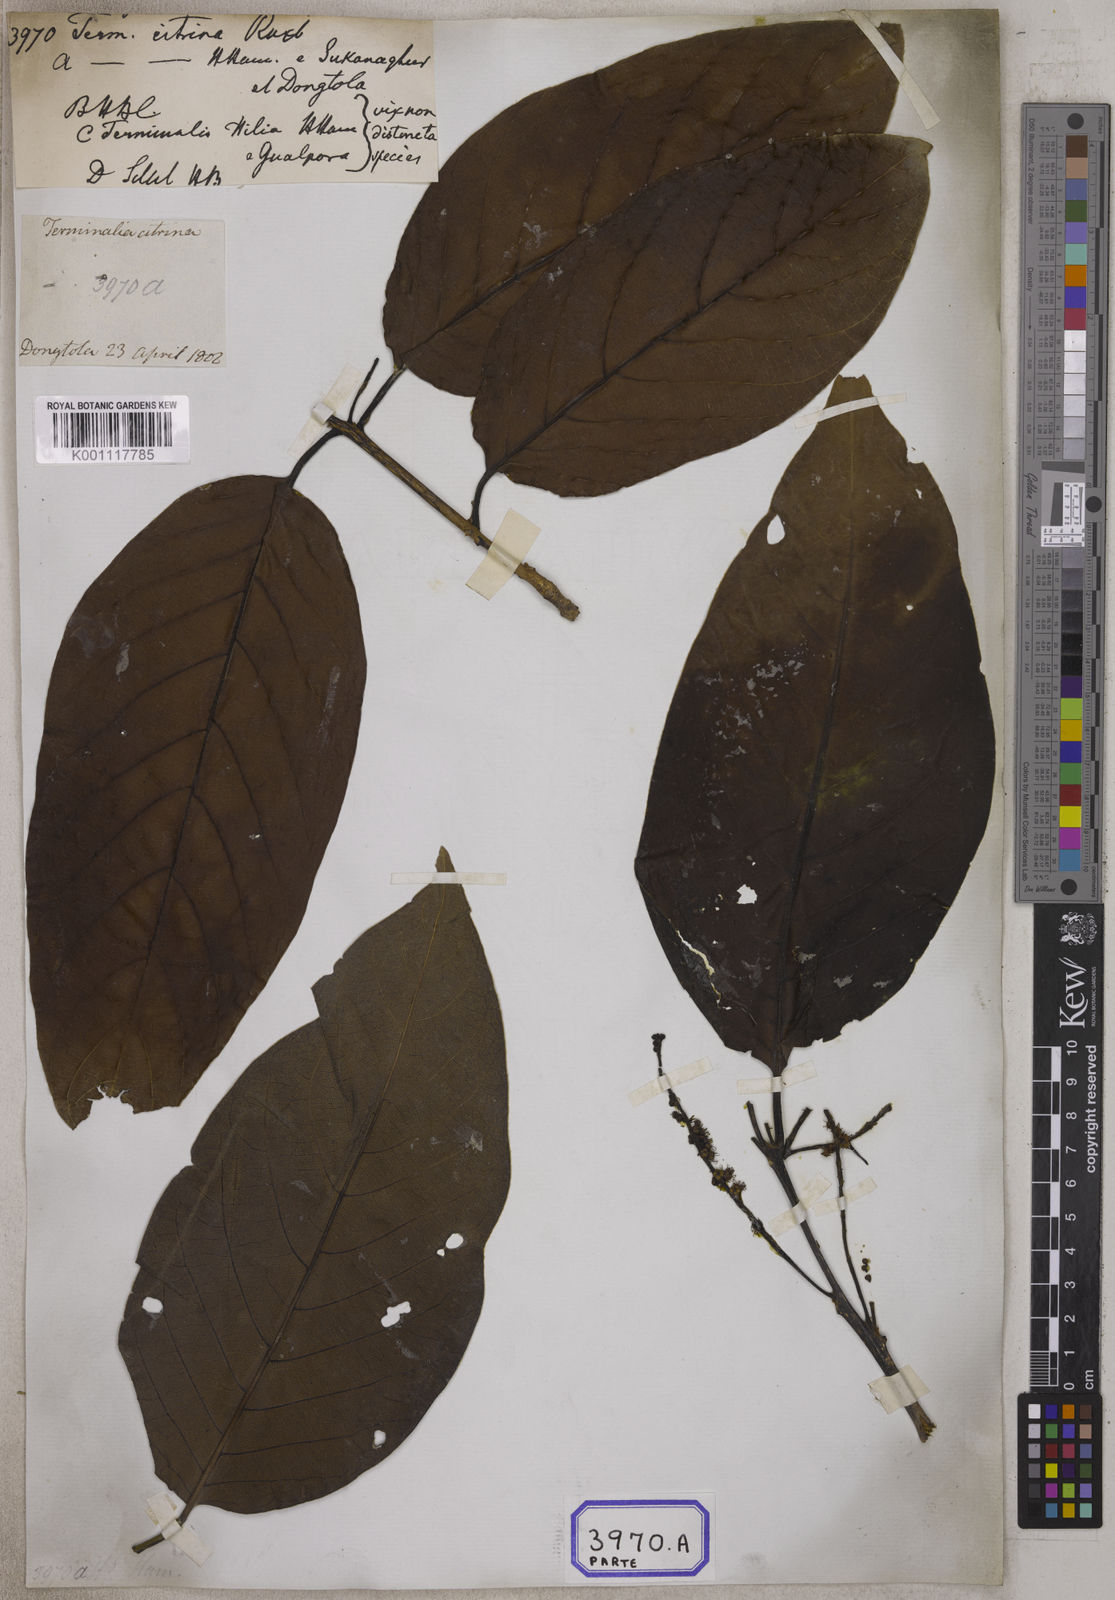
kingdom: Plantae
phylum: Tracheophyta
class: Magnoliopsida
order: Myrtales
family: Combretaceae
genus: Terminalia
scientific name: Terminalia citrina
